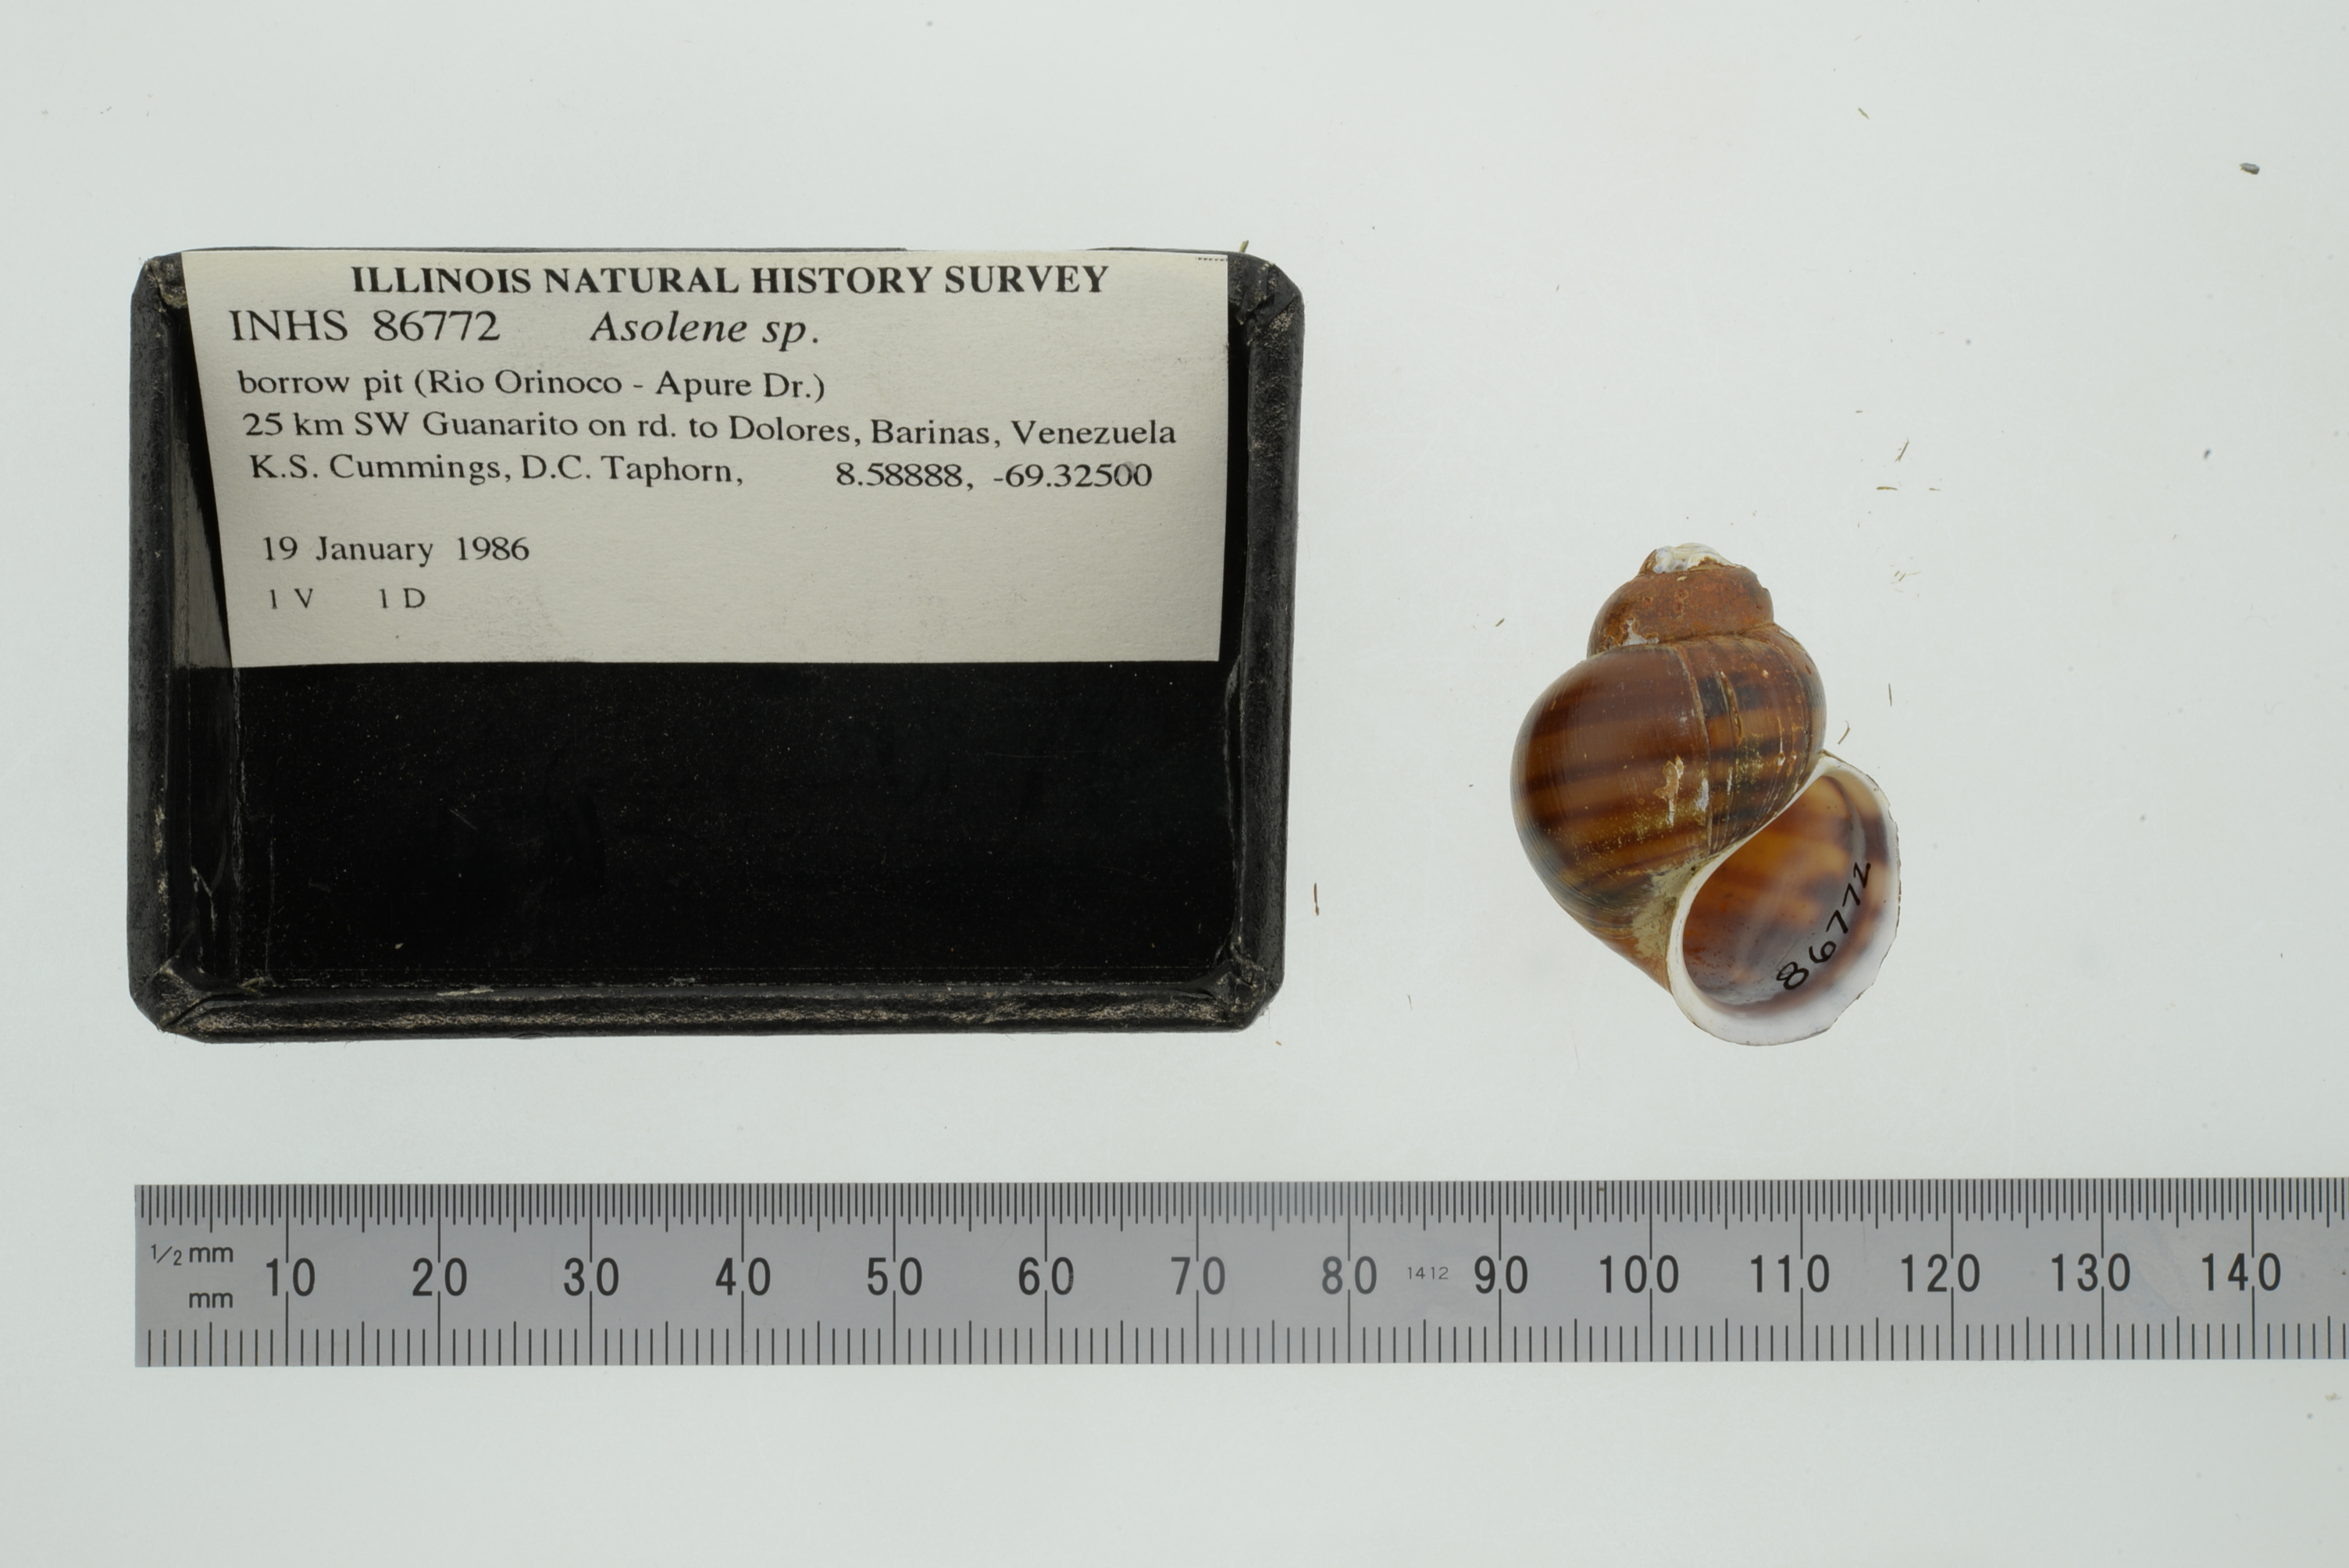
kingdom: Animalia
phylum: Mollusca
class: Gastropoda
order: Architaenioglossa
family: Ampullariidae
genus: Asolene
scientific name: Asolene
